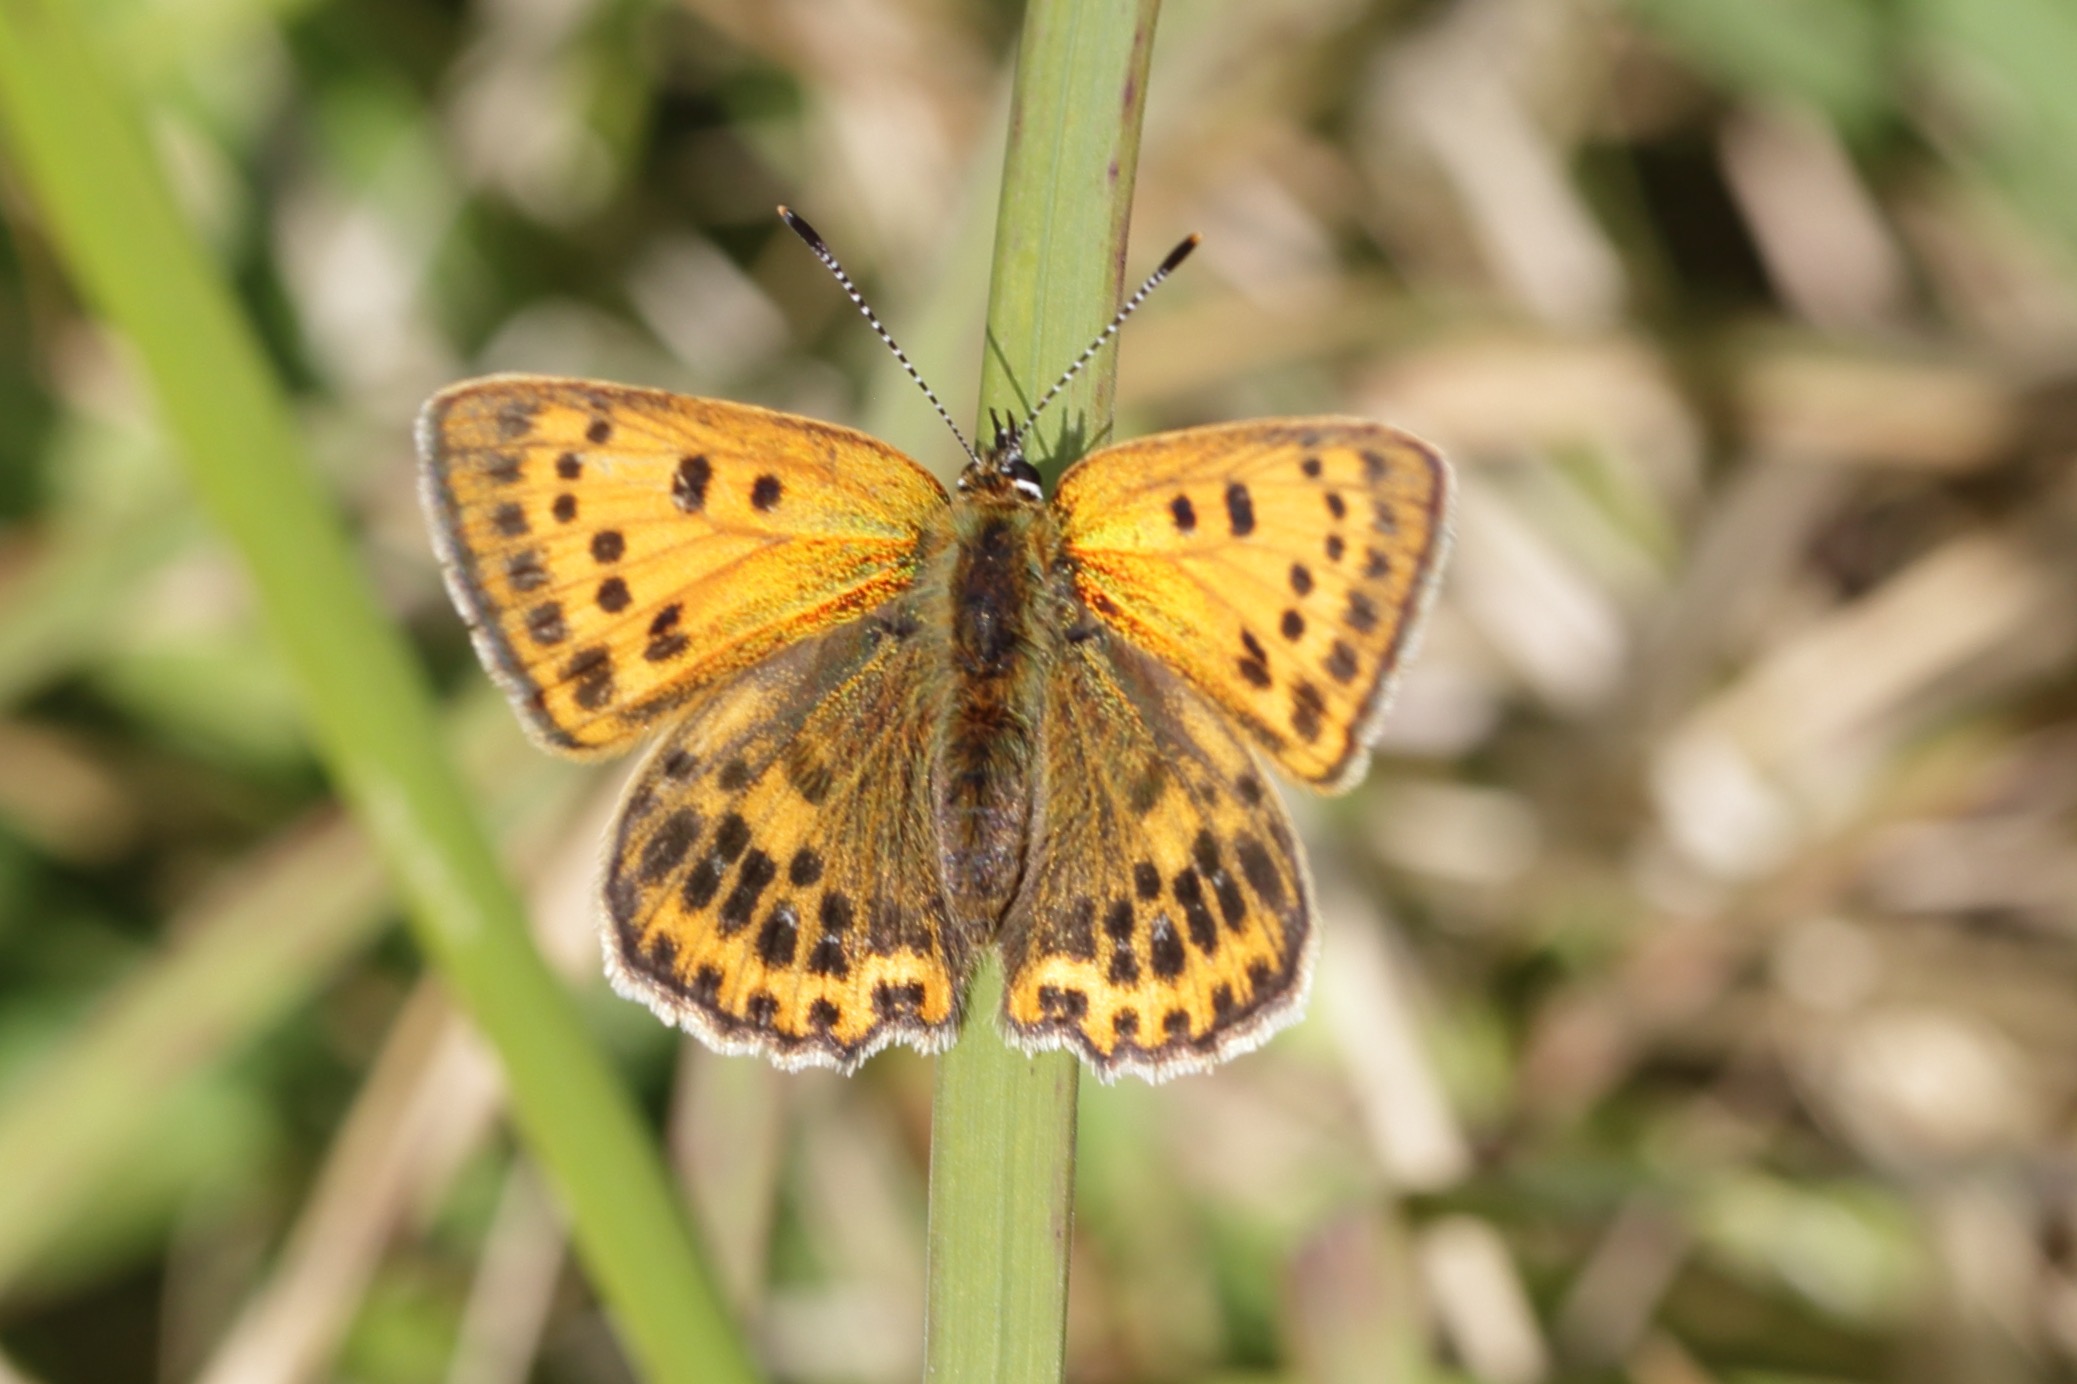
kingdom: Animalia
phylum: Arthropoda
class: Insecta
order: Lepidoptera
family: Lycaenidae
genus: Lycaena
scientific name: Lycaena virgaureae
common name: Dukatsommerfugl
